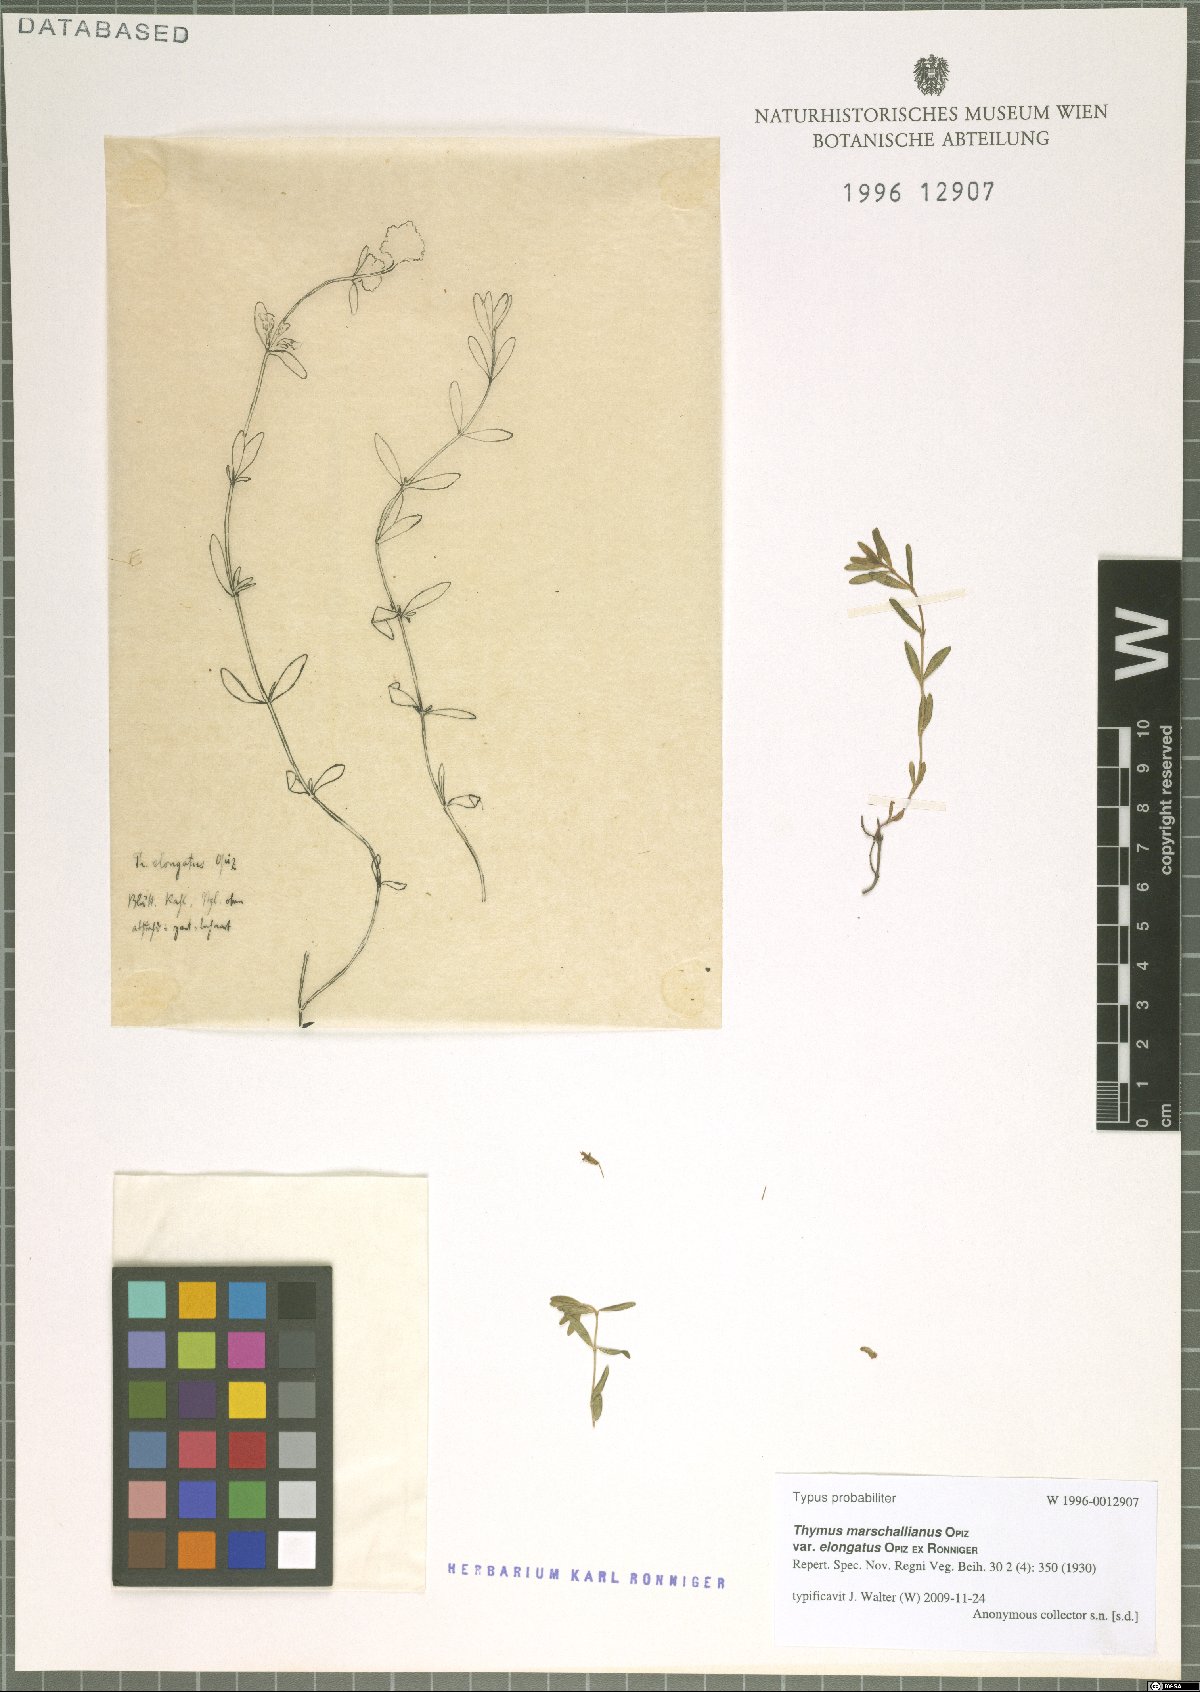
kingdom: Plantae
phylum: Tracheophyta
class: Magnoliopsida
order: Lamiales
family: Lamiaceae
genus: Thymus
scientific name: Thymus marschallianus
